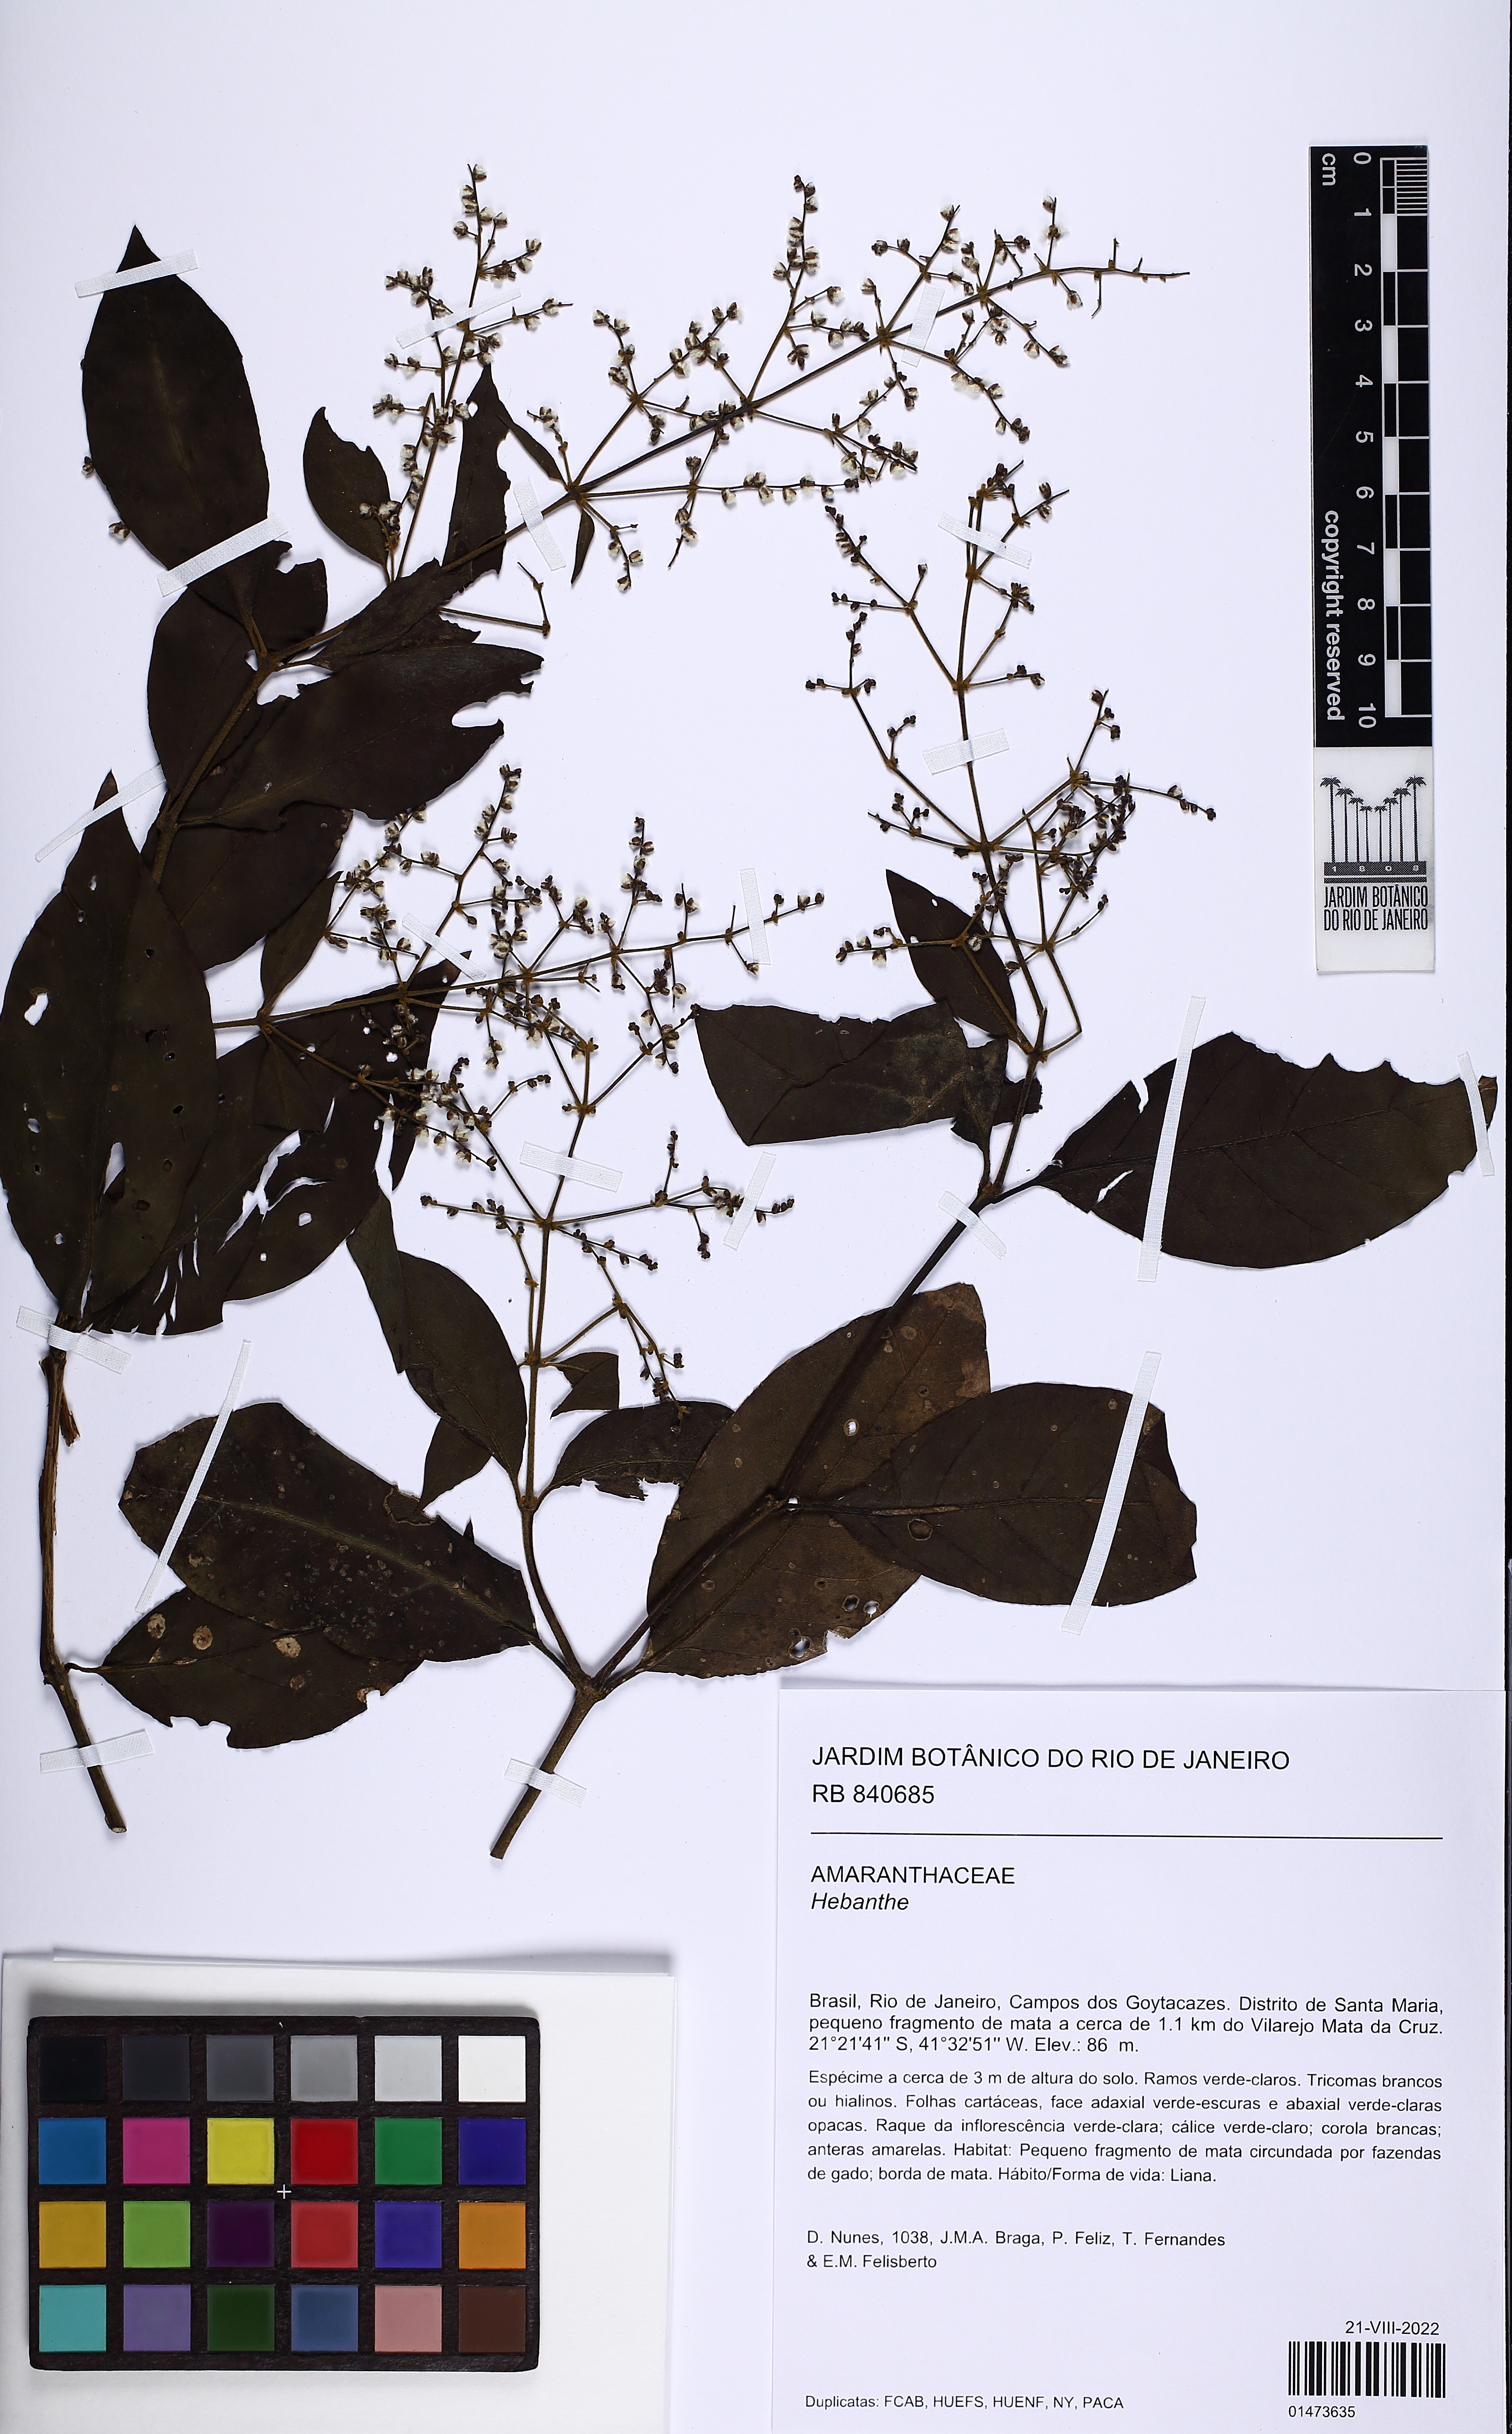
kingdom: Plantae
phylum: Tracheophyta
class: Magnoliopsida
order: Caryophyllales
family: Amaranthaceae
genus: Hebanthe
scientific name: Hebanthe
